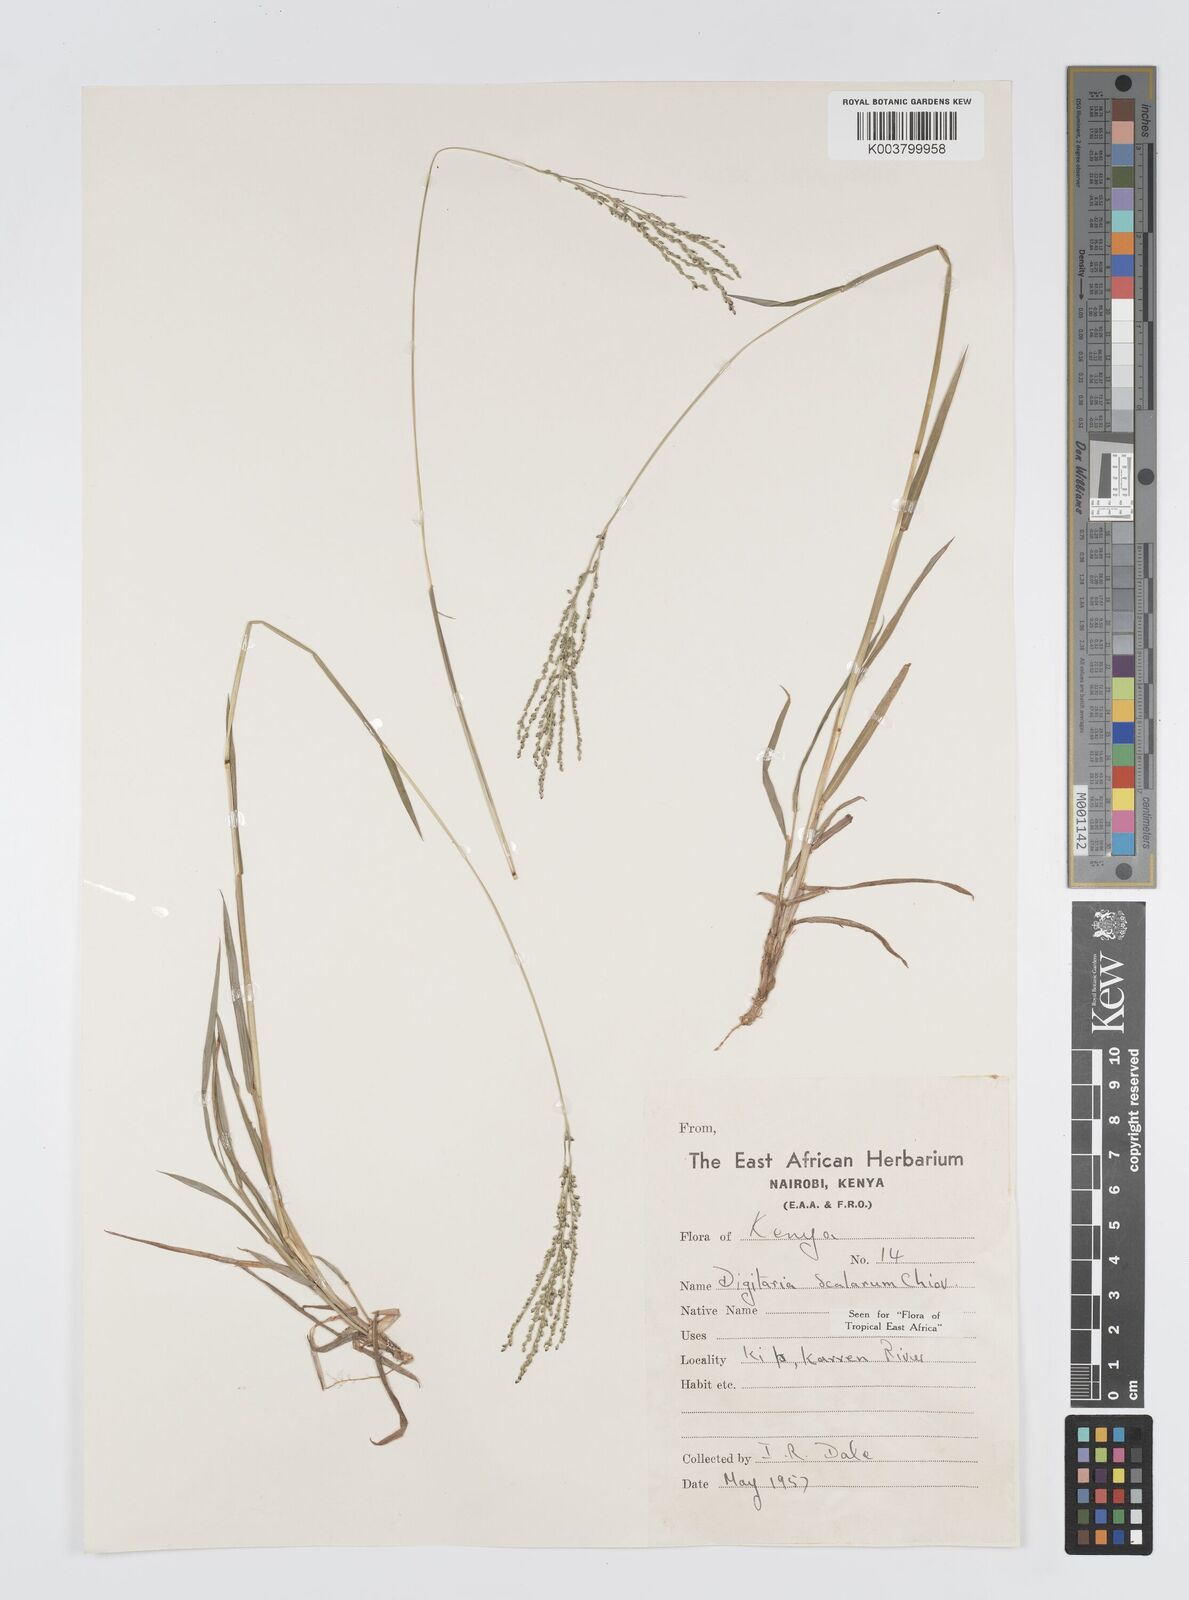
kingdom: Plantae
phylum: Tracheophyta
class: Liliopsida
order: Poales
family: Poaceae
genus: Digitaria
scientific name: Digitaria abyssinica
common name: African couchgrass
